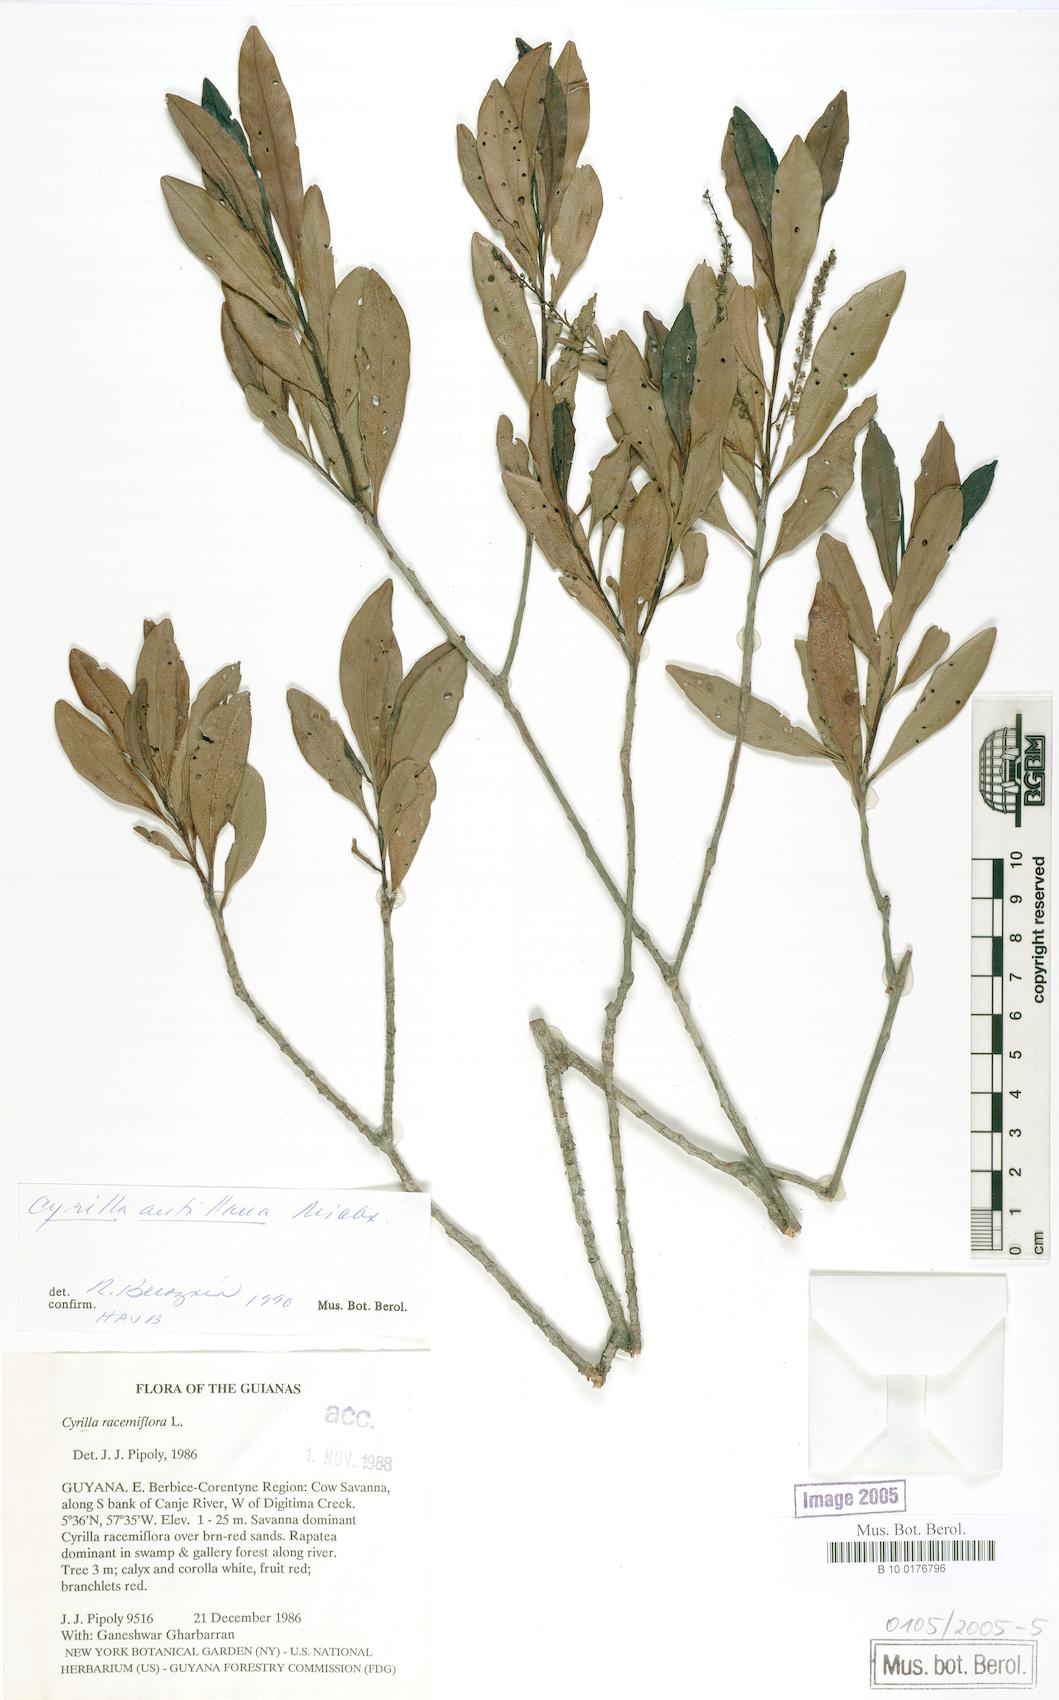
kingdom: Plantae
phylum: Tracheophyta
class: Magnoliopsida
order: Ericales
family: Cyrillaceae
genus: Cyrilla
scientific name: Cyrilla racemiflora
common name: Black titi
